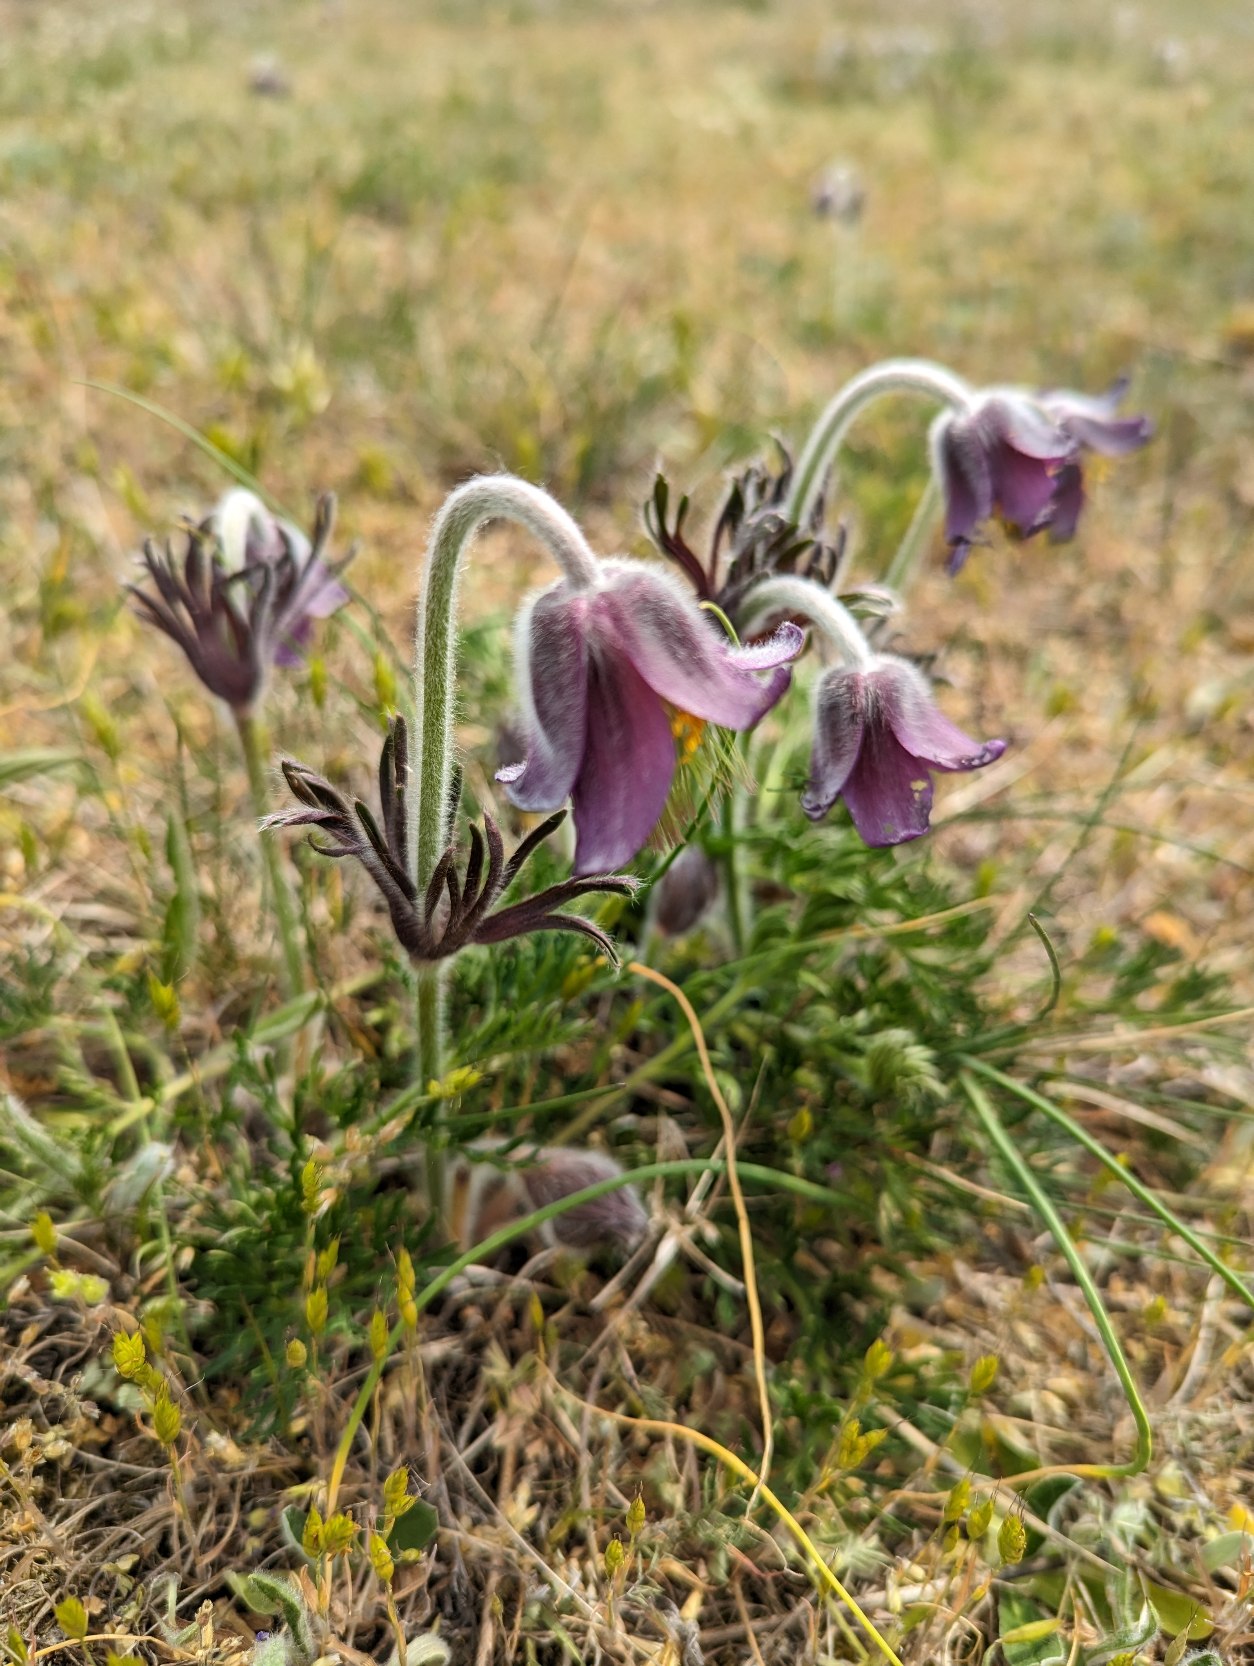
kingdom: Plantae
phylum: Tracheophyta
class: Magnoliopsida
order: Ranunculales
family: Ranunculaceae
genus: Pulsatilla
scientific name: Pulsatilla pratensis
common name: Nikkende kobjælde
